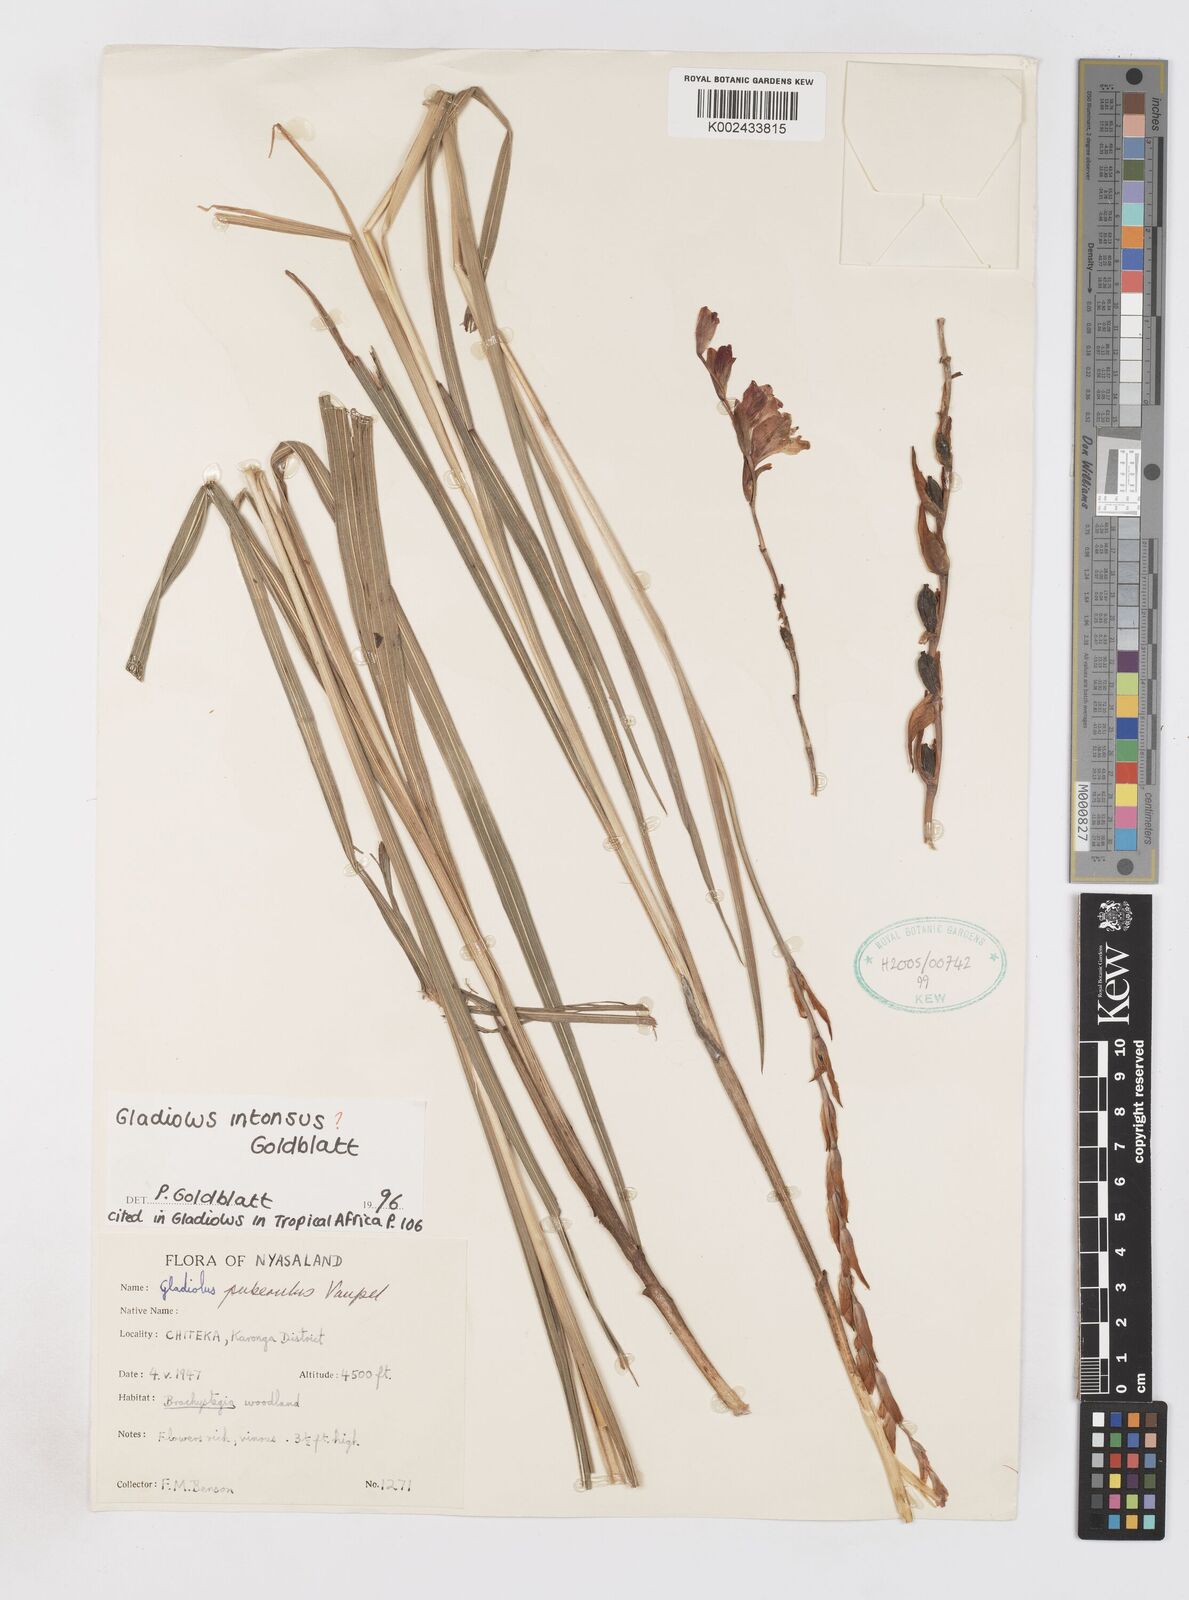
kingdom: Plantae
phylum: Tracheophyta
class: Liliopsida
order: Asparagales
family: Iridaceae
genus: Gladiolus
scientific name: Gladiolus intonsus
